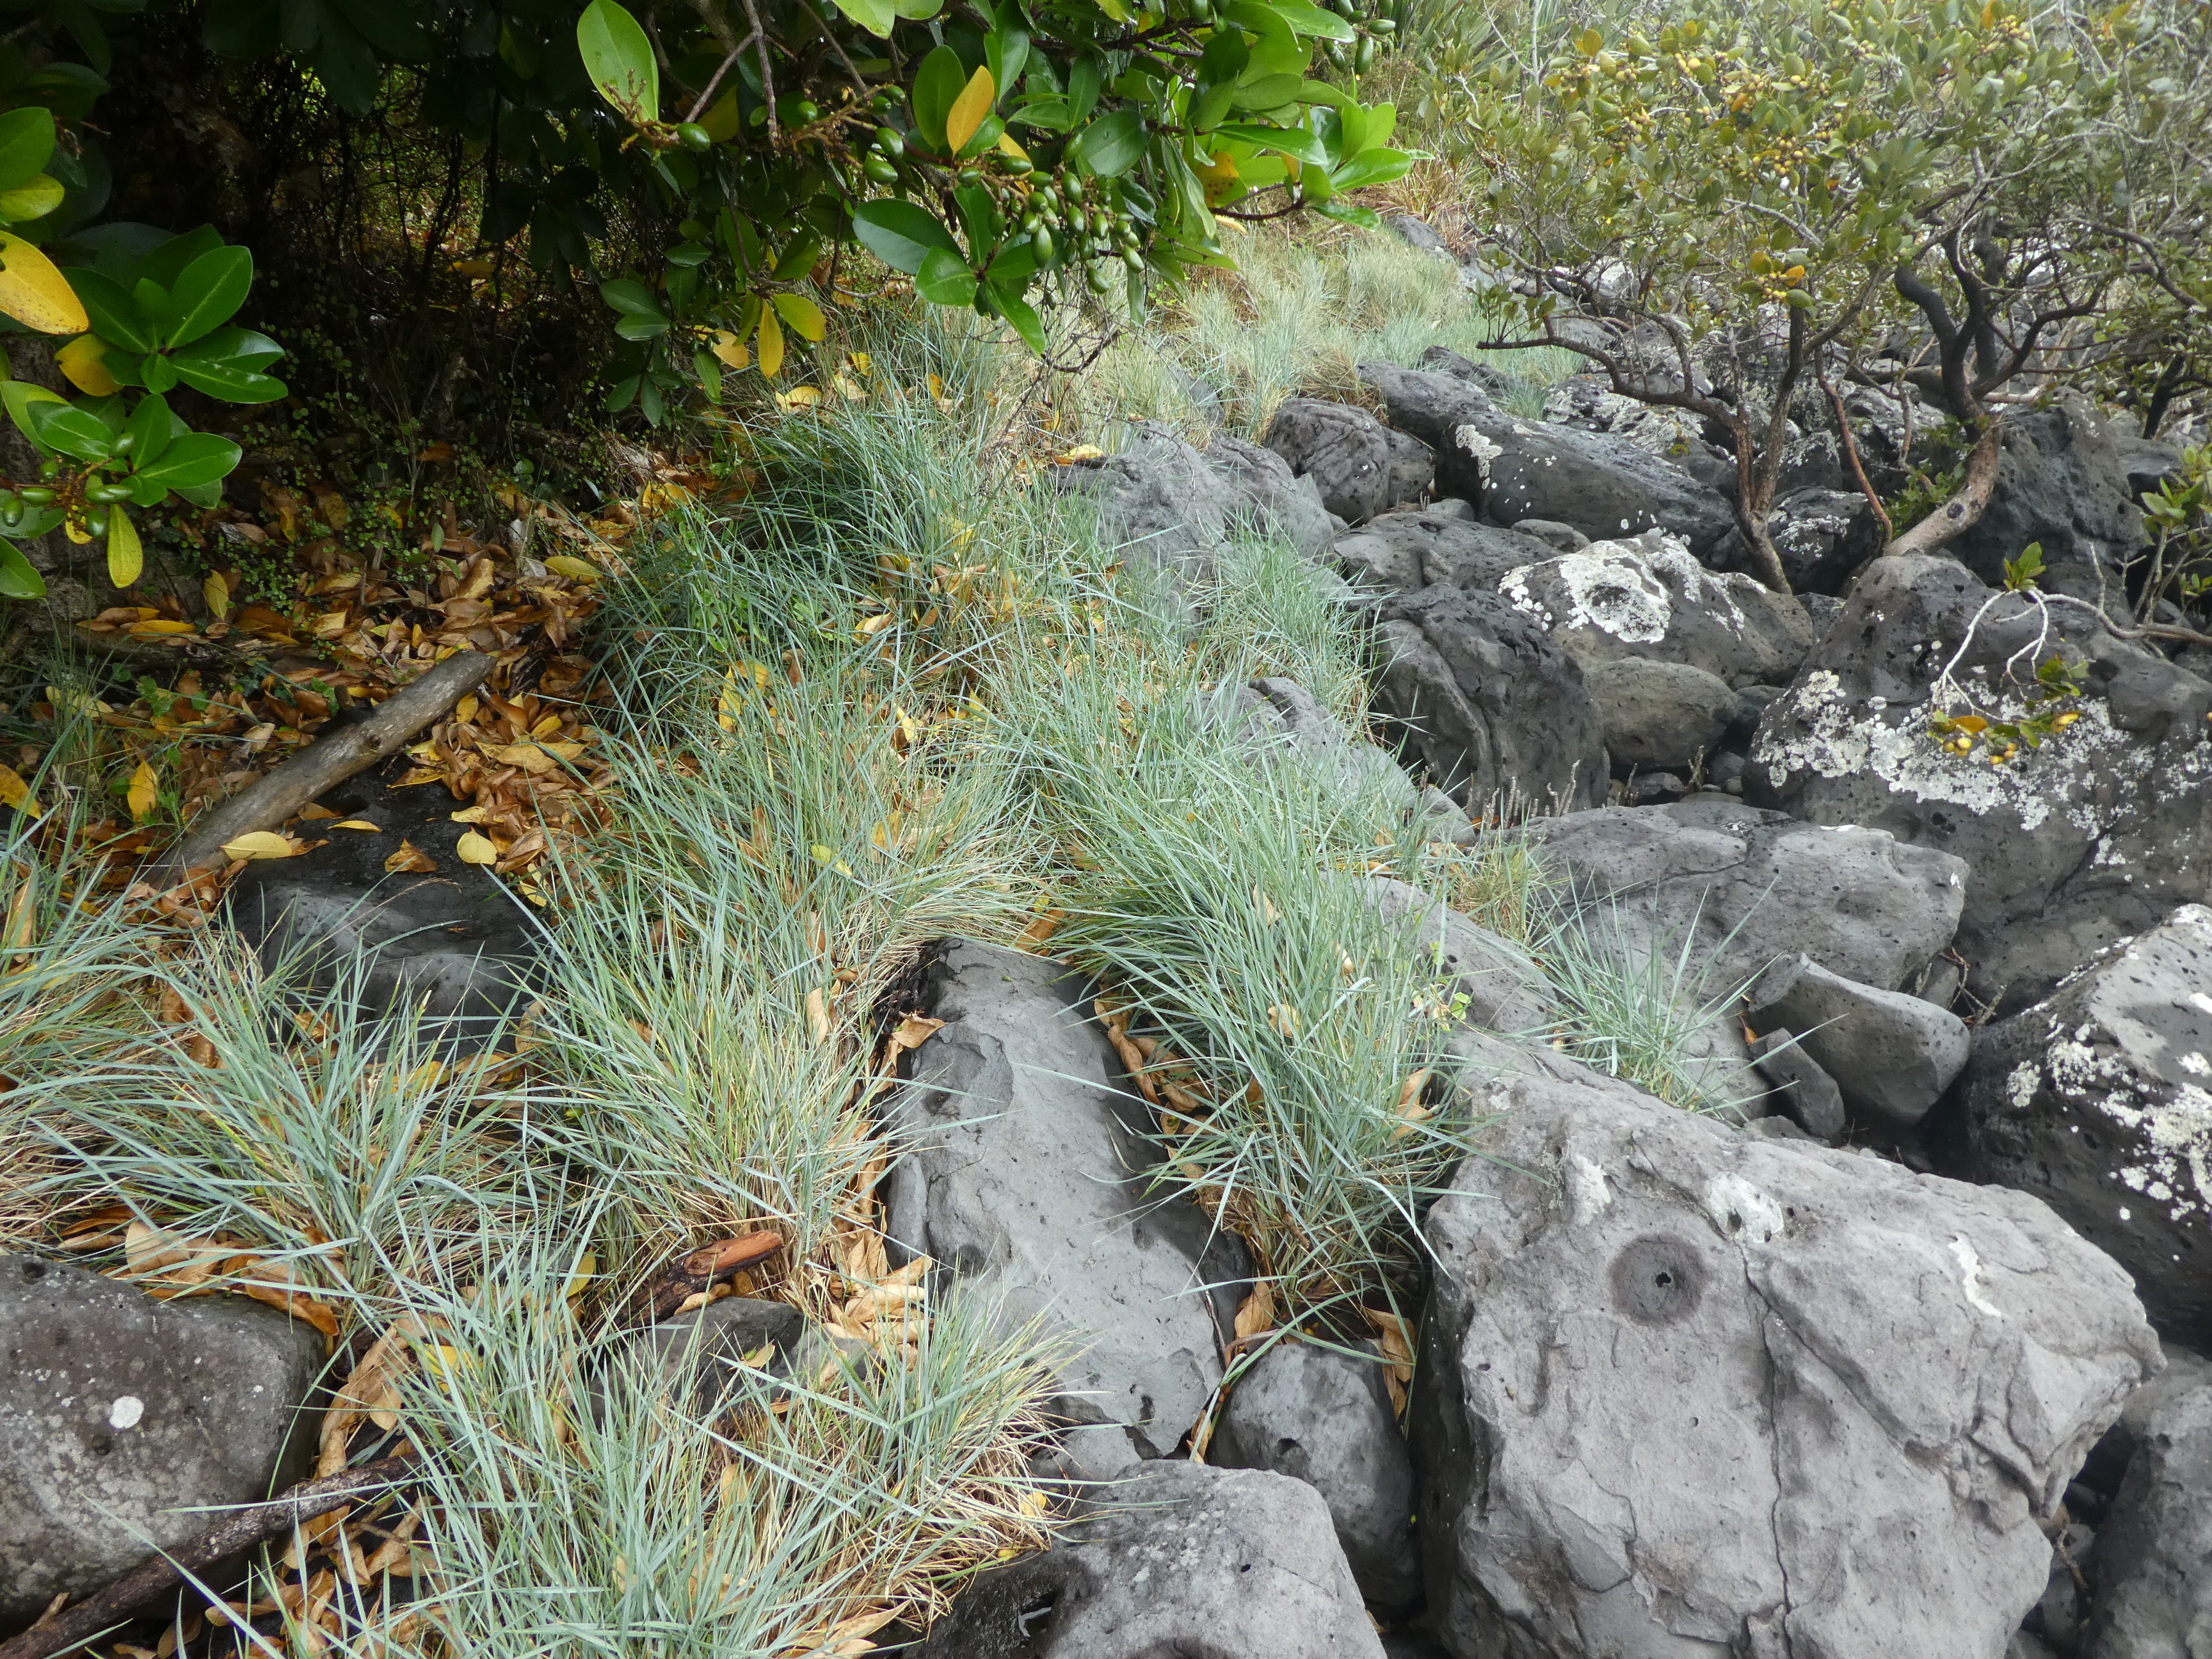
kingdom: Plantae
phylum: Tracheophyta
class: Liliopsida
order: Poales
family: Poaceae
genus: Thinopyrum
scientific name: Thinopyrum acutum
